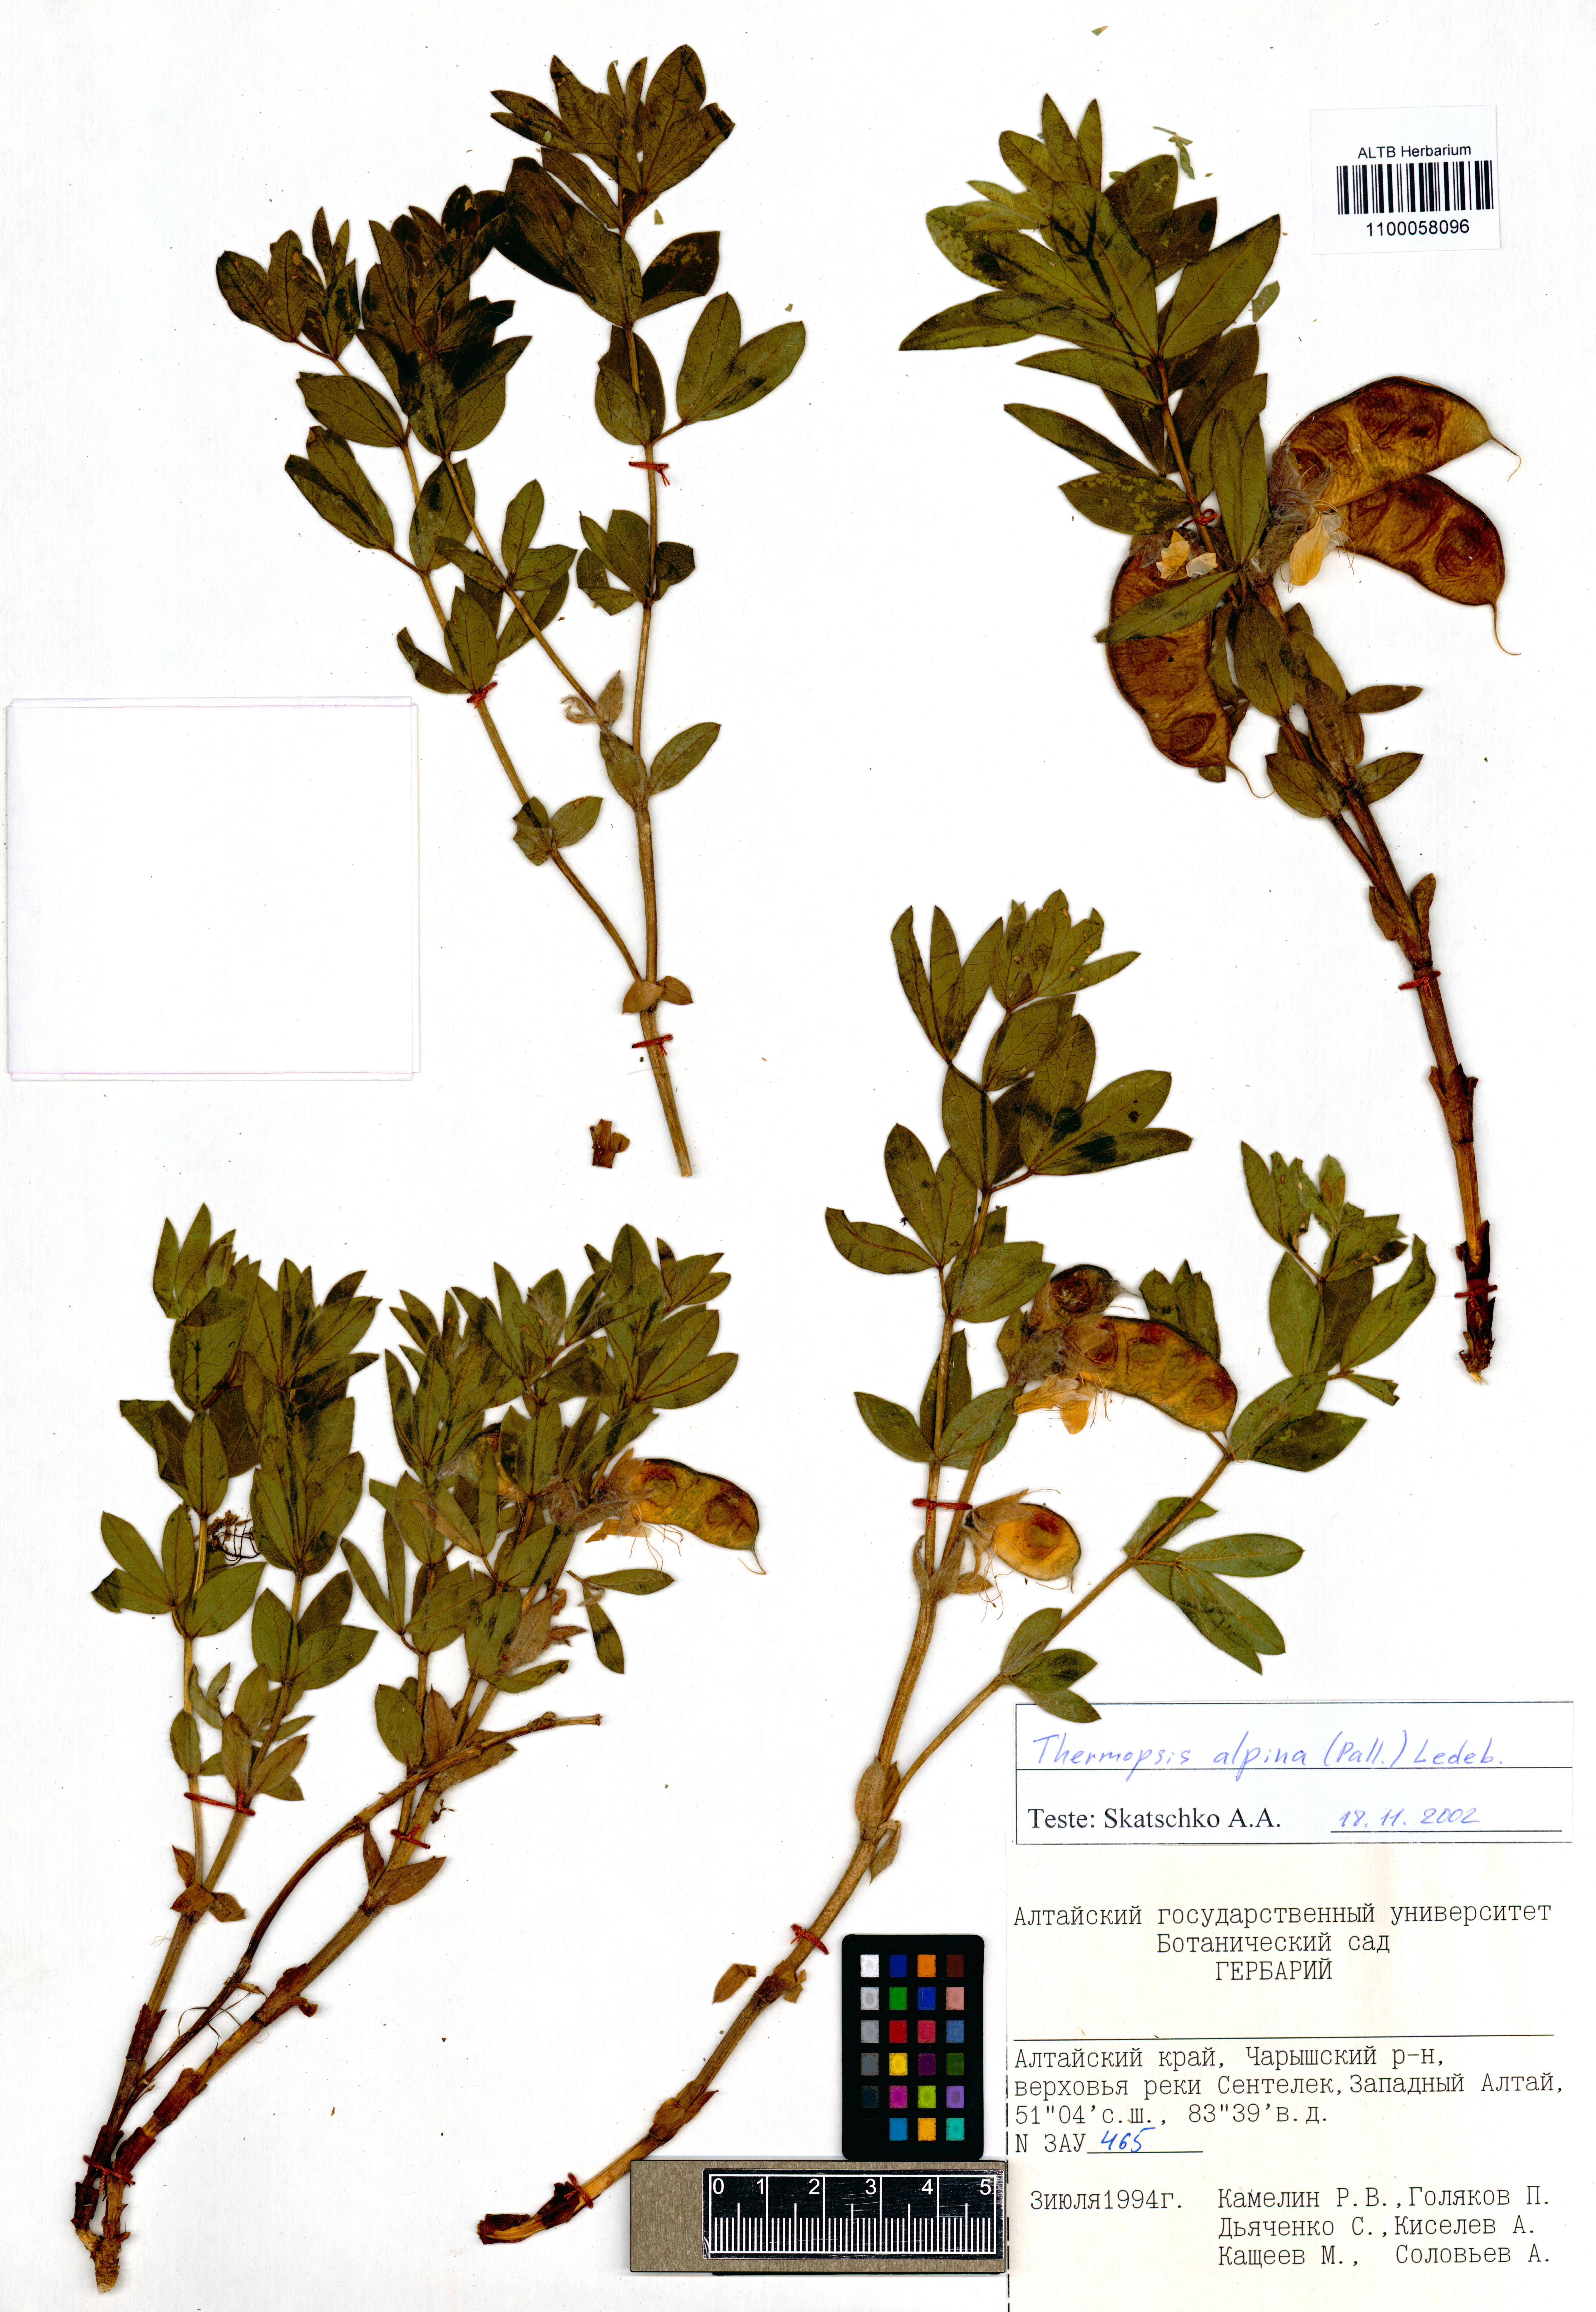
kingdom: Plantae
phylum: Tracheophyta
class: Magnoliopsida
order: Fabales
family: Fabaceae
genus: Thermopsis
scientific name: Thermopsis alpina
